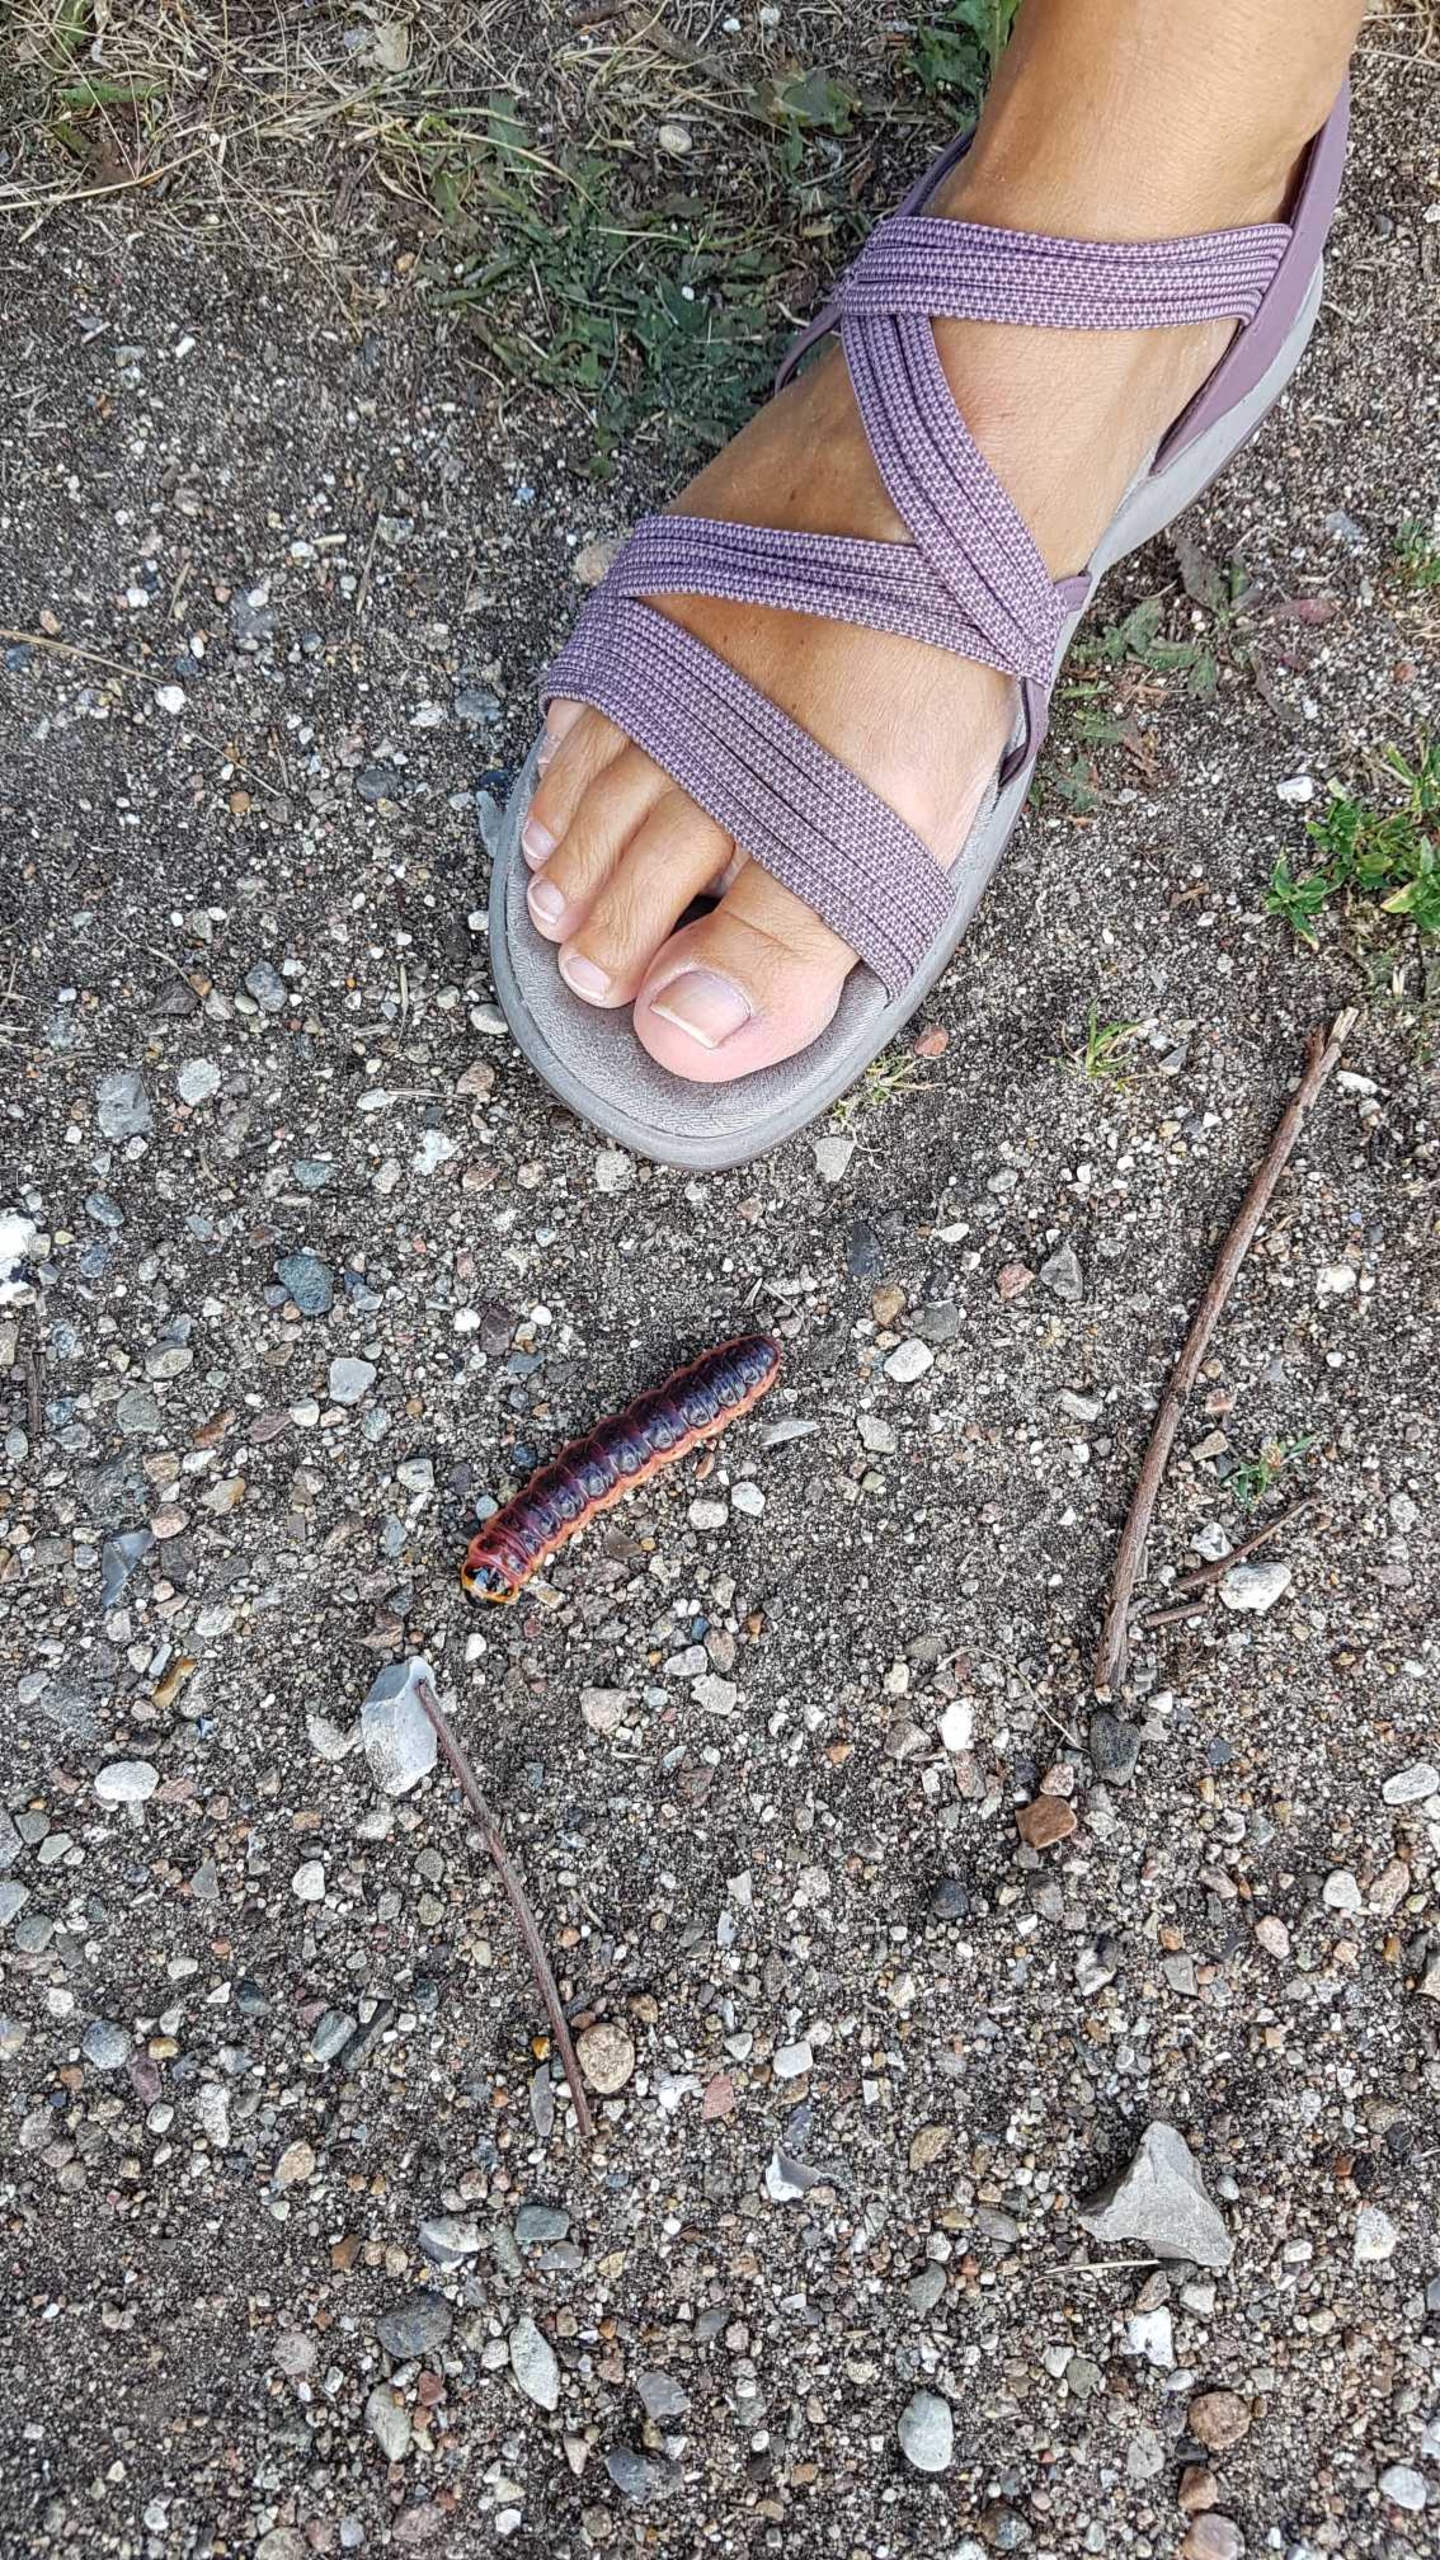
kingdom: Animalia
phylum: Arthropoda
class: Insecta
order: Lepidoptera
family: Cossidae
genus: Cossus
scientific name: Cossus cossus
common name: Pileborer
